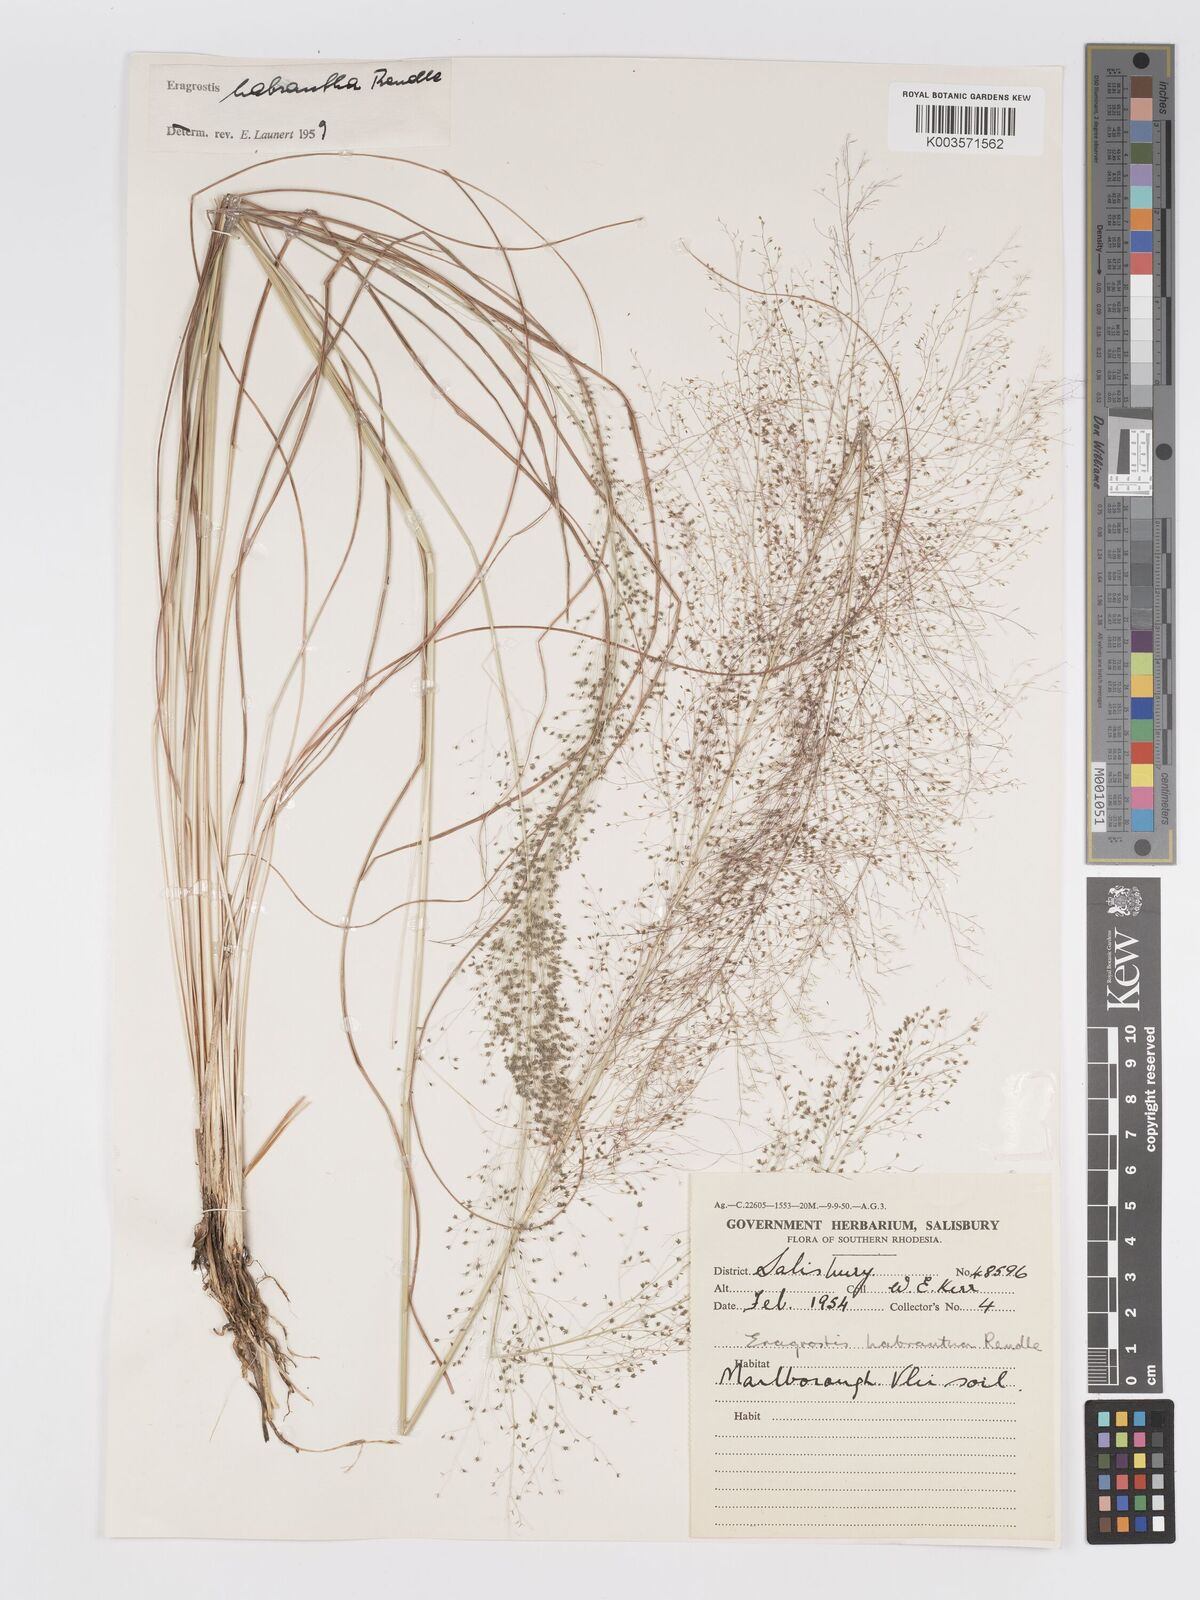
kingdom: Plantae
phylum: Tracheophyta
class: Liliopsida
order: Poales
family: Poaceae
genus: Eragrostis
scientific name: Eragrostis habrantha
